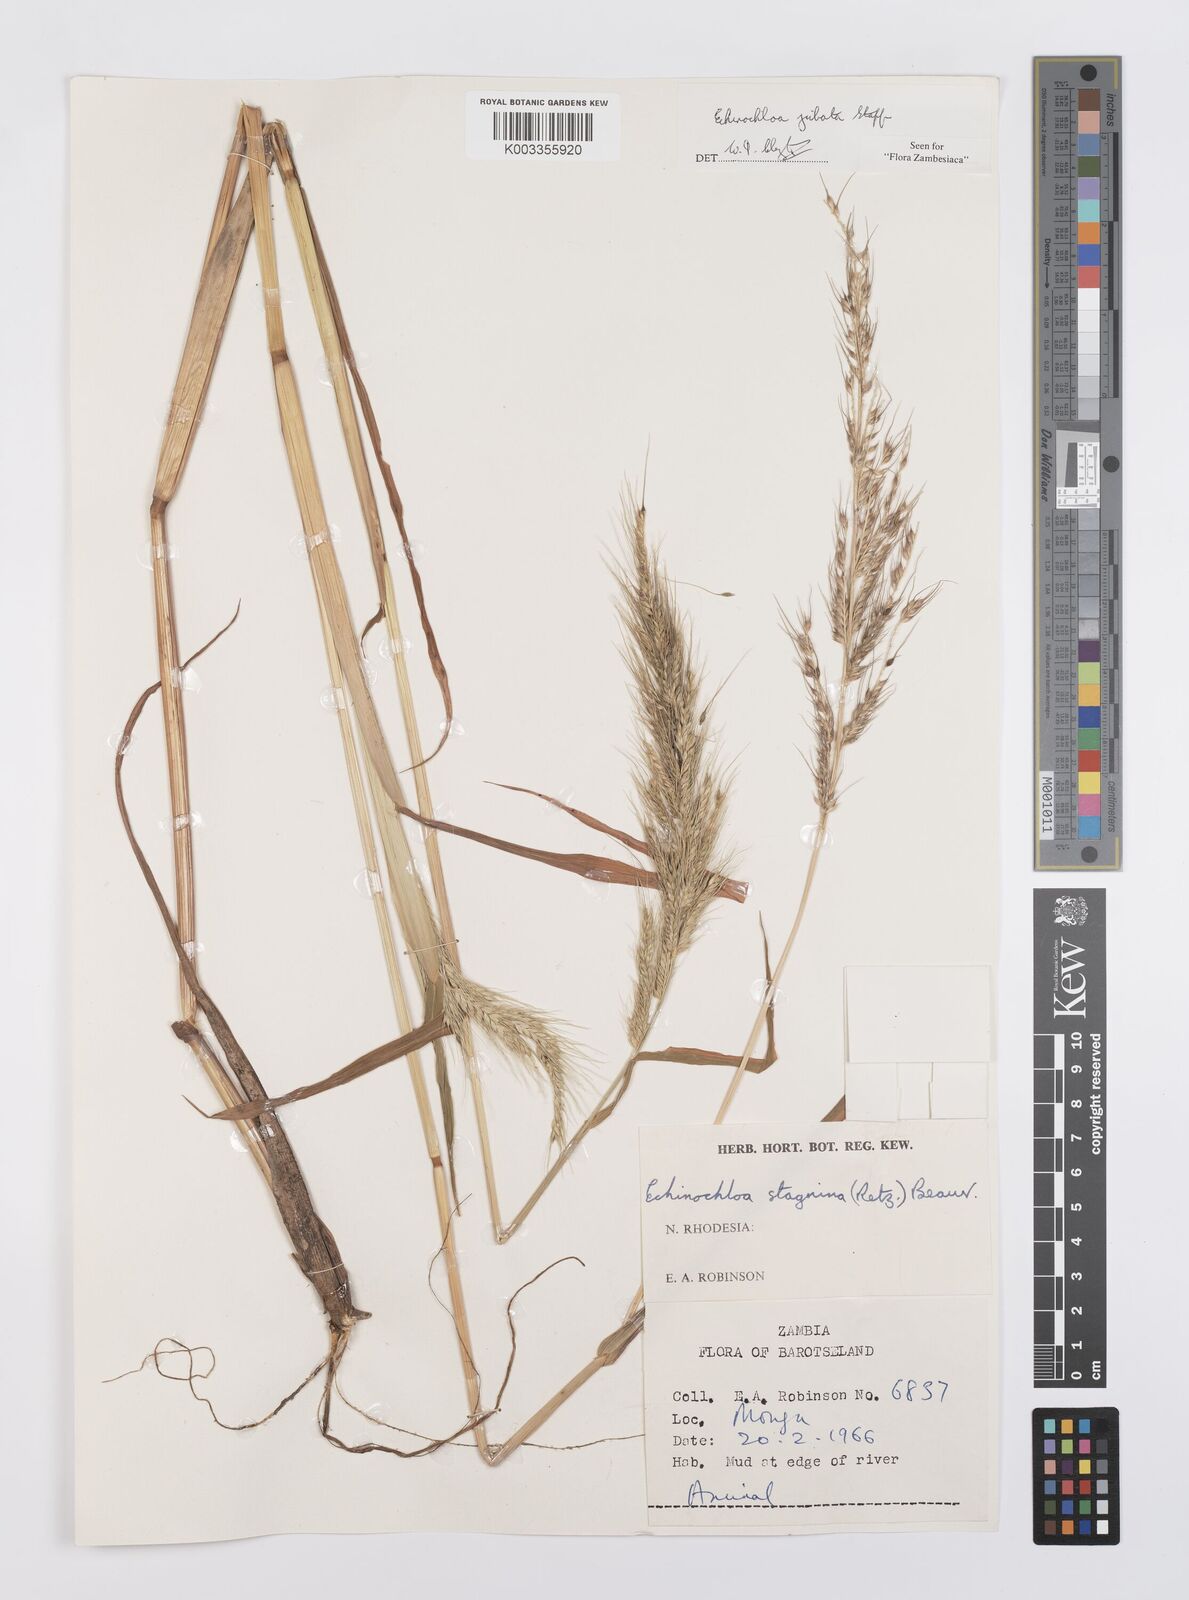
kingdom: Plantae
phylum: Tracheophyta
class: Liliopsida
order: Poales
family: Poaceae
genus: Echinochloa
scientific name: Echinochloa jubata
